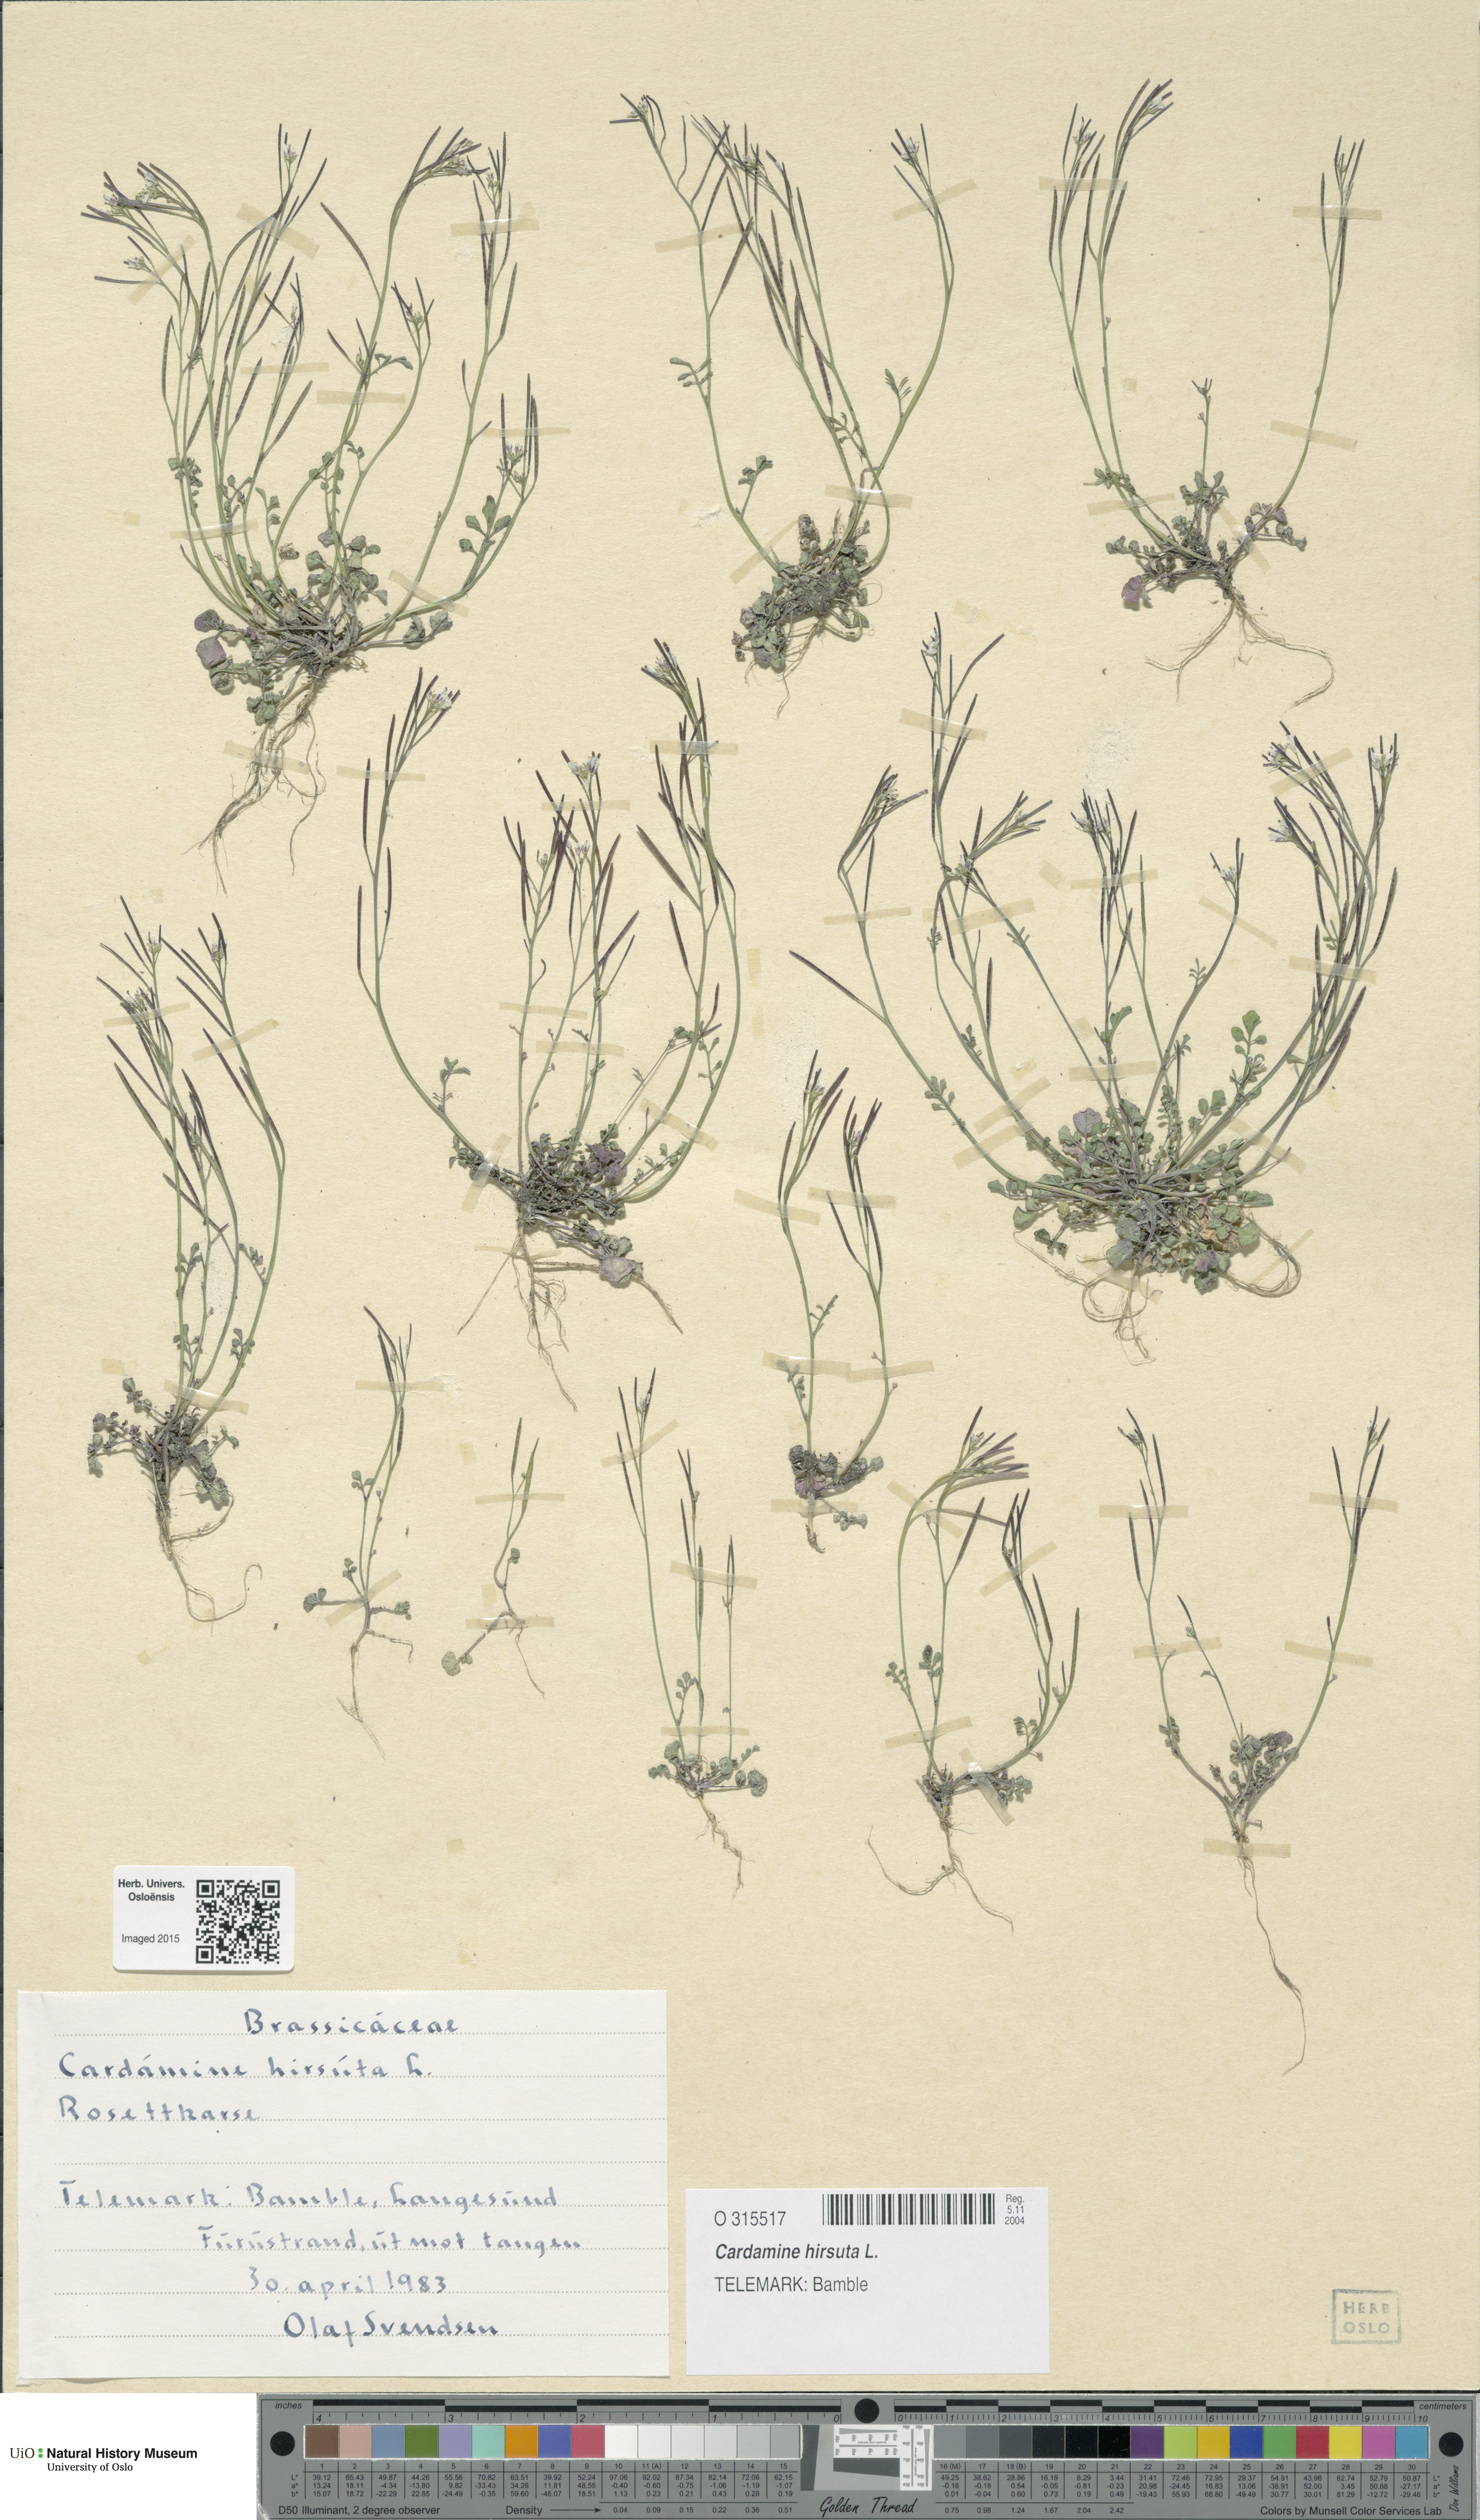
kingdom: Plantae
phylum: Tracheophyta
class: Magnoliopsida
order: Brassicales
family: Brassicaceae
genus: Cardamine
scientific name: Cardamine hirsuta
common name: Hairy bittercress
